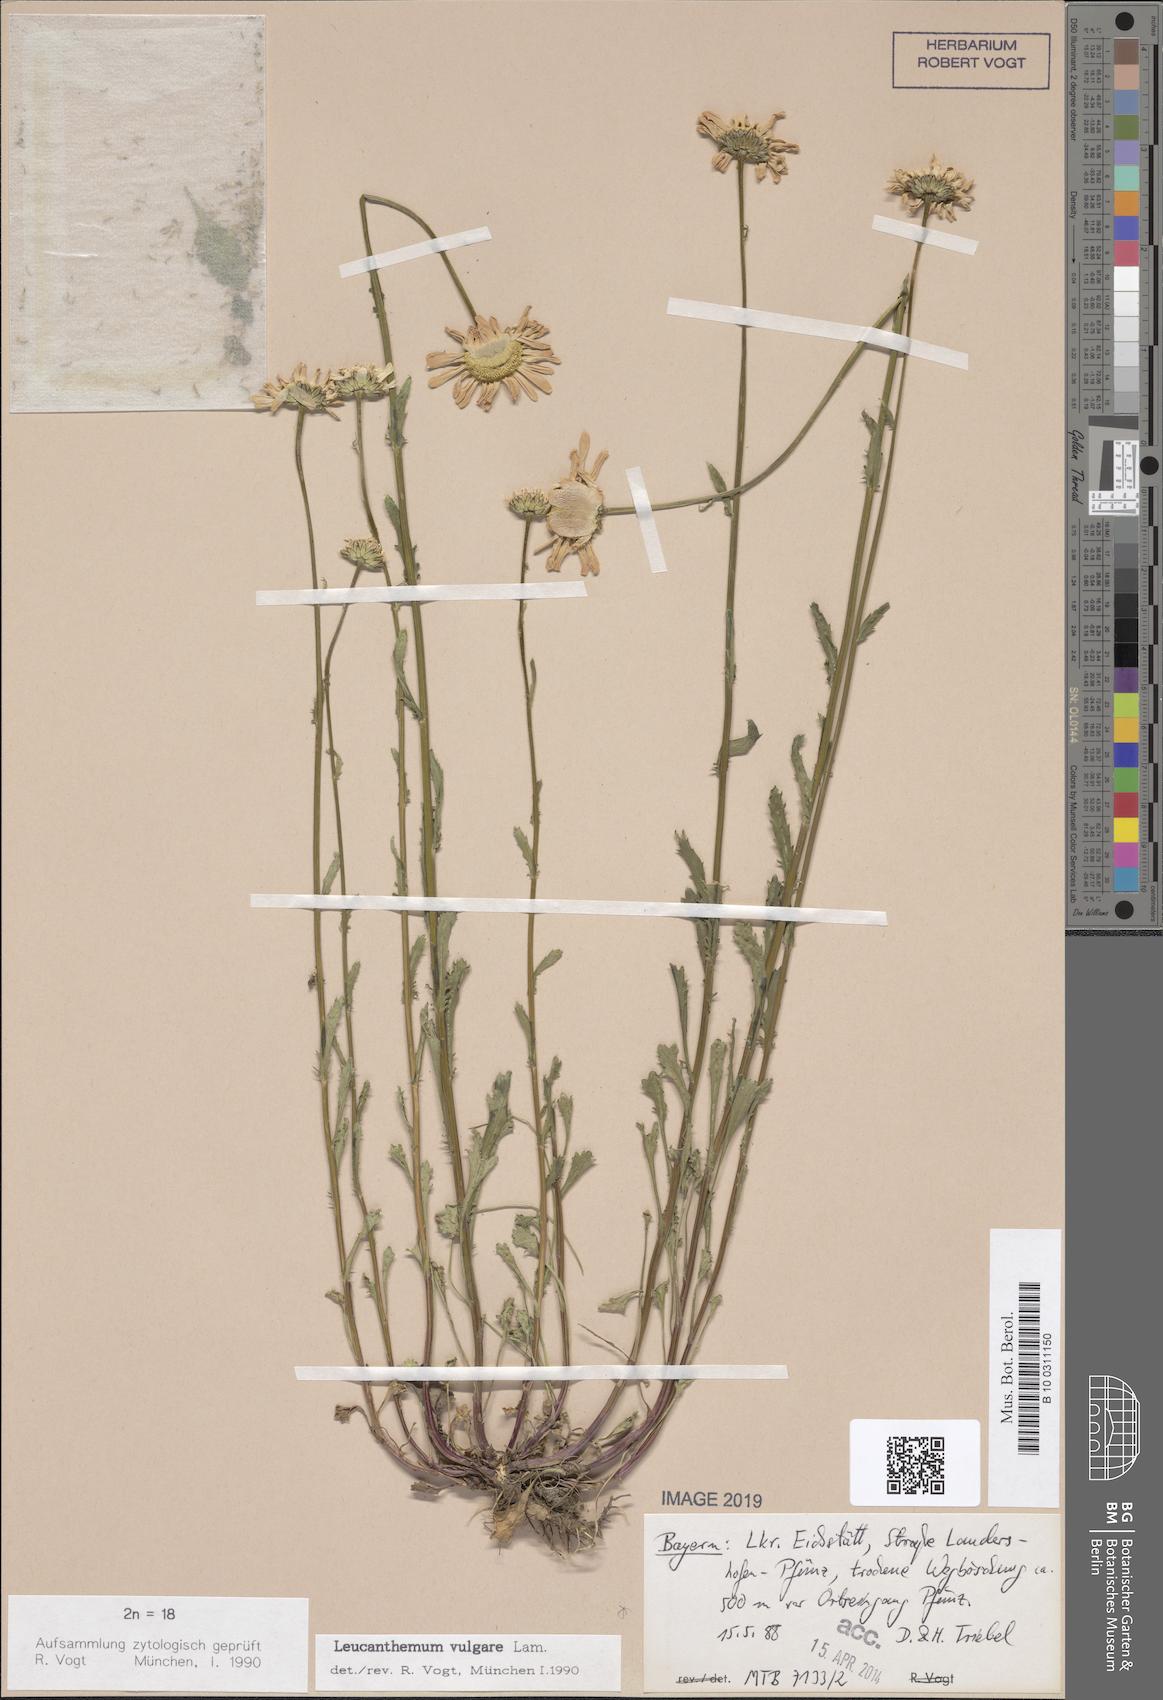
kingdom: Plantae
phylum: Tracheophyta
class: Magnoliopsida
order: Asterales
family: Asteraceae
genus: Leucanthemum
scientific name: Leucanthemum vulgare
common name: Oxeye daisy
